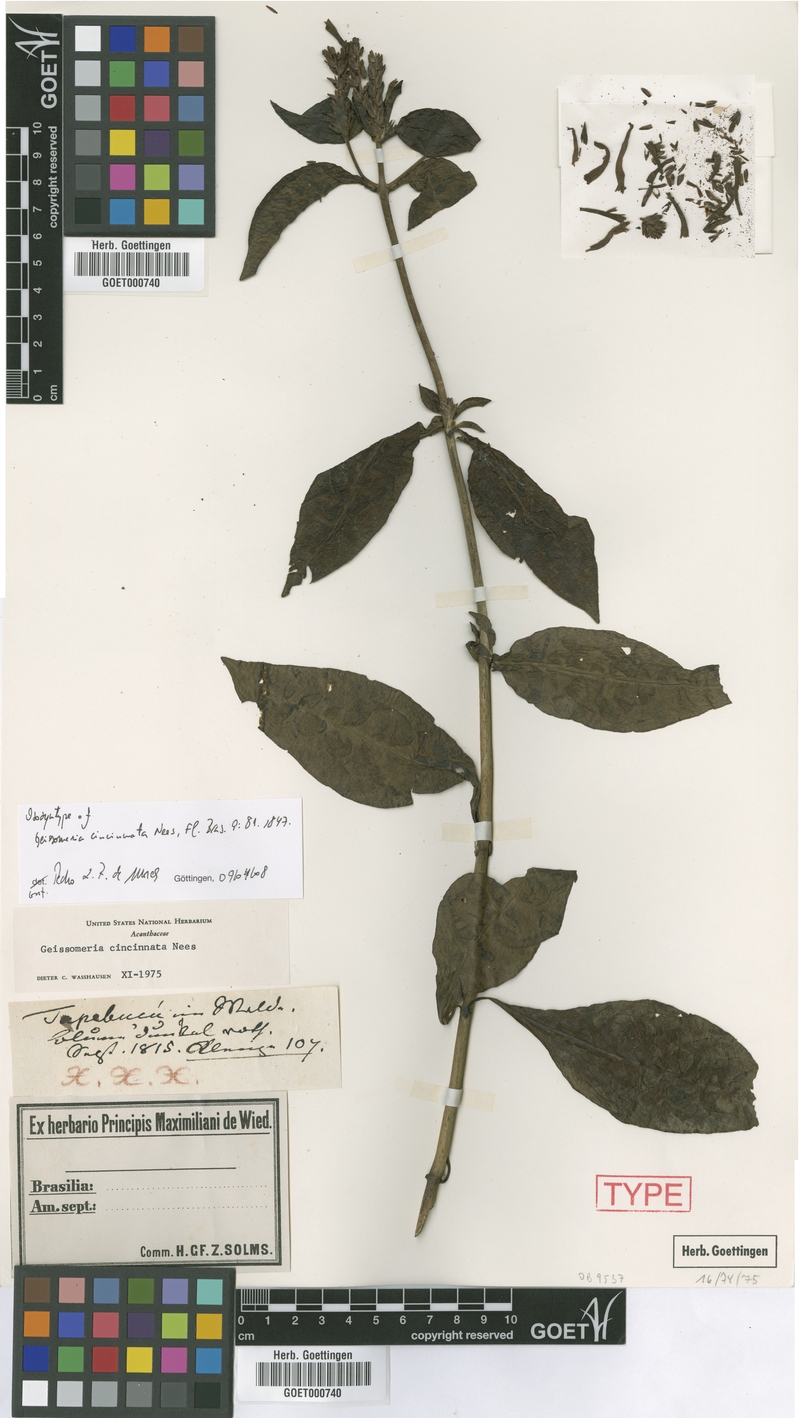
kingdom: Plantae
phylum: Tracheophyta
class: Magnoliopsida
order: Lamiales
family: Acanthaceae
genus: Aphelandra
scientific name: Aphelandra longiflora
